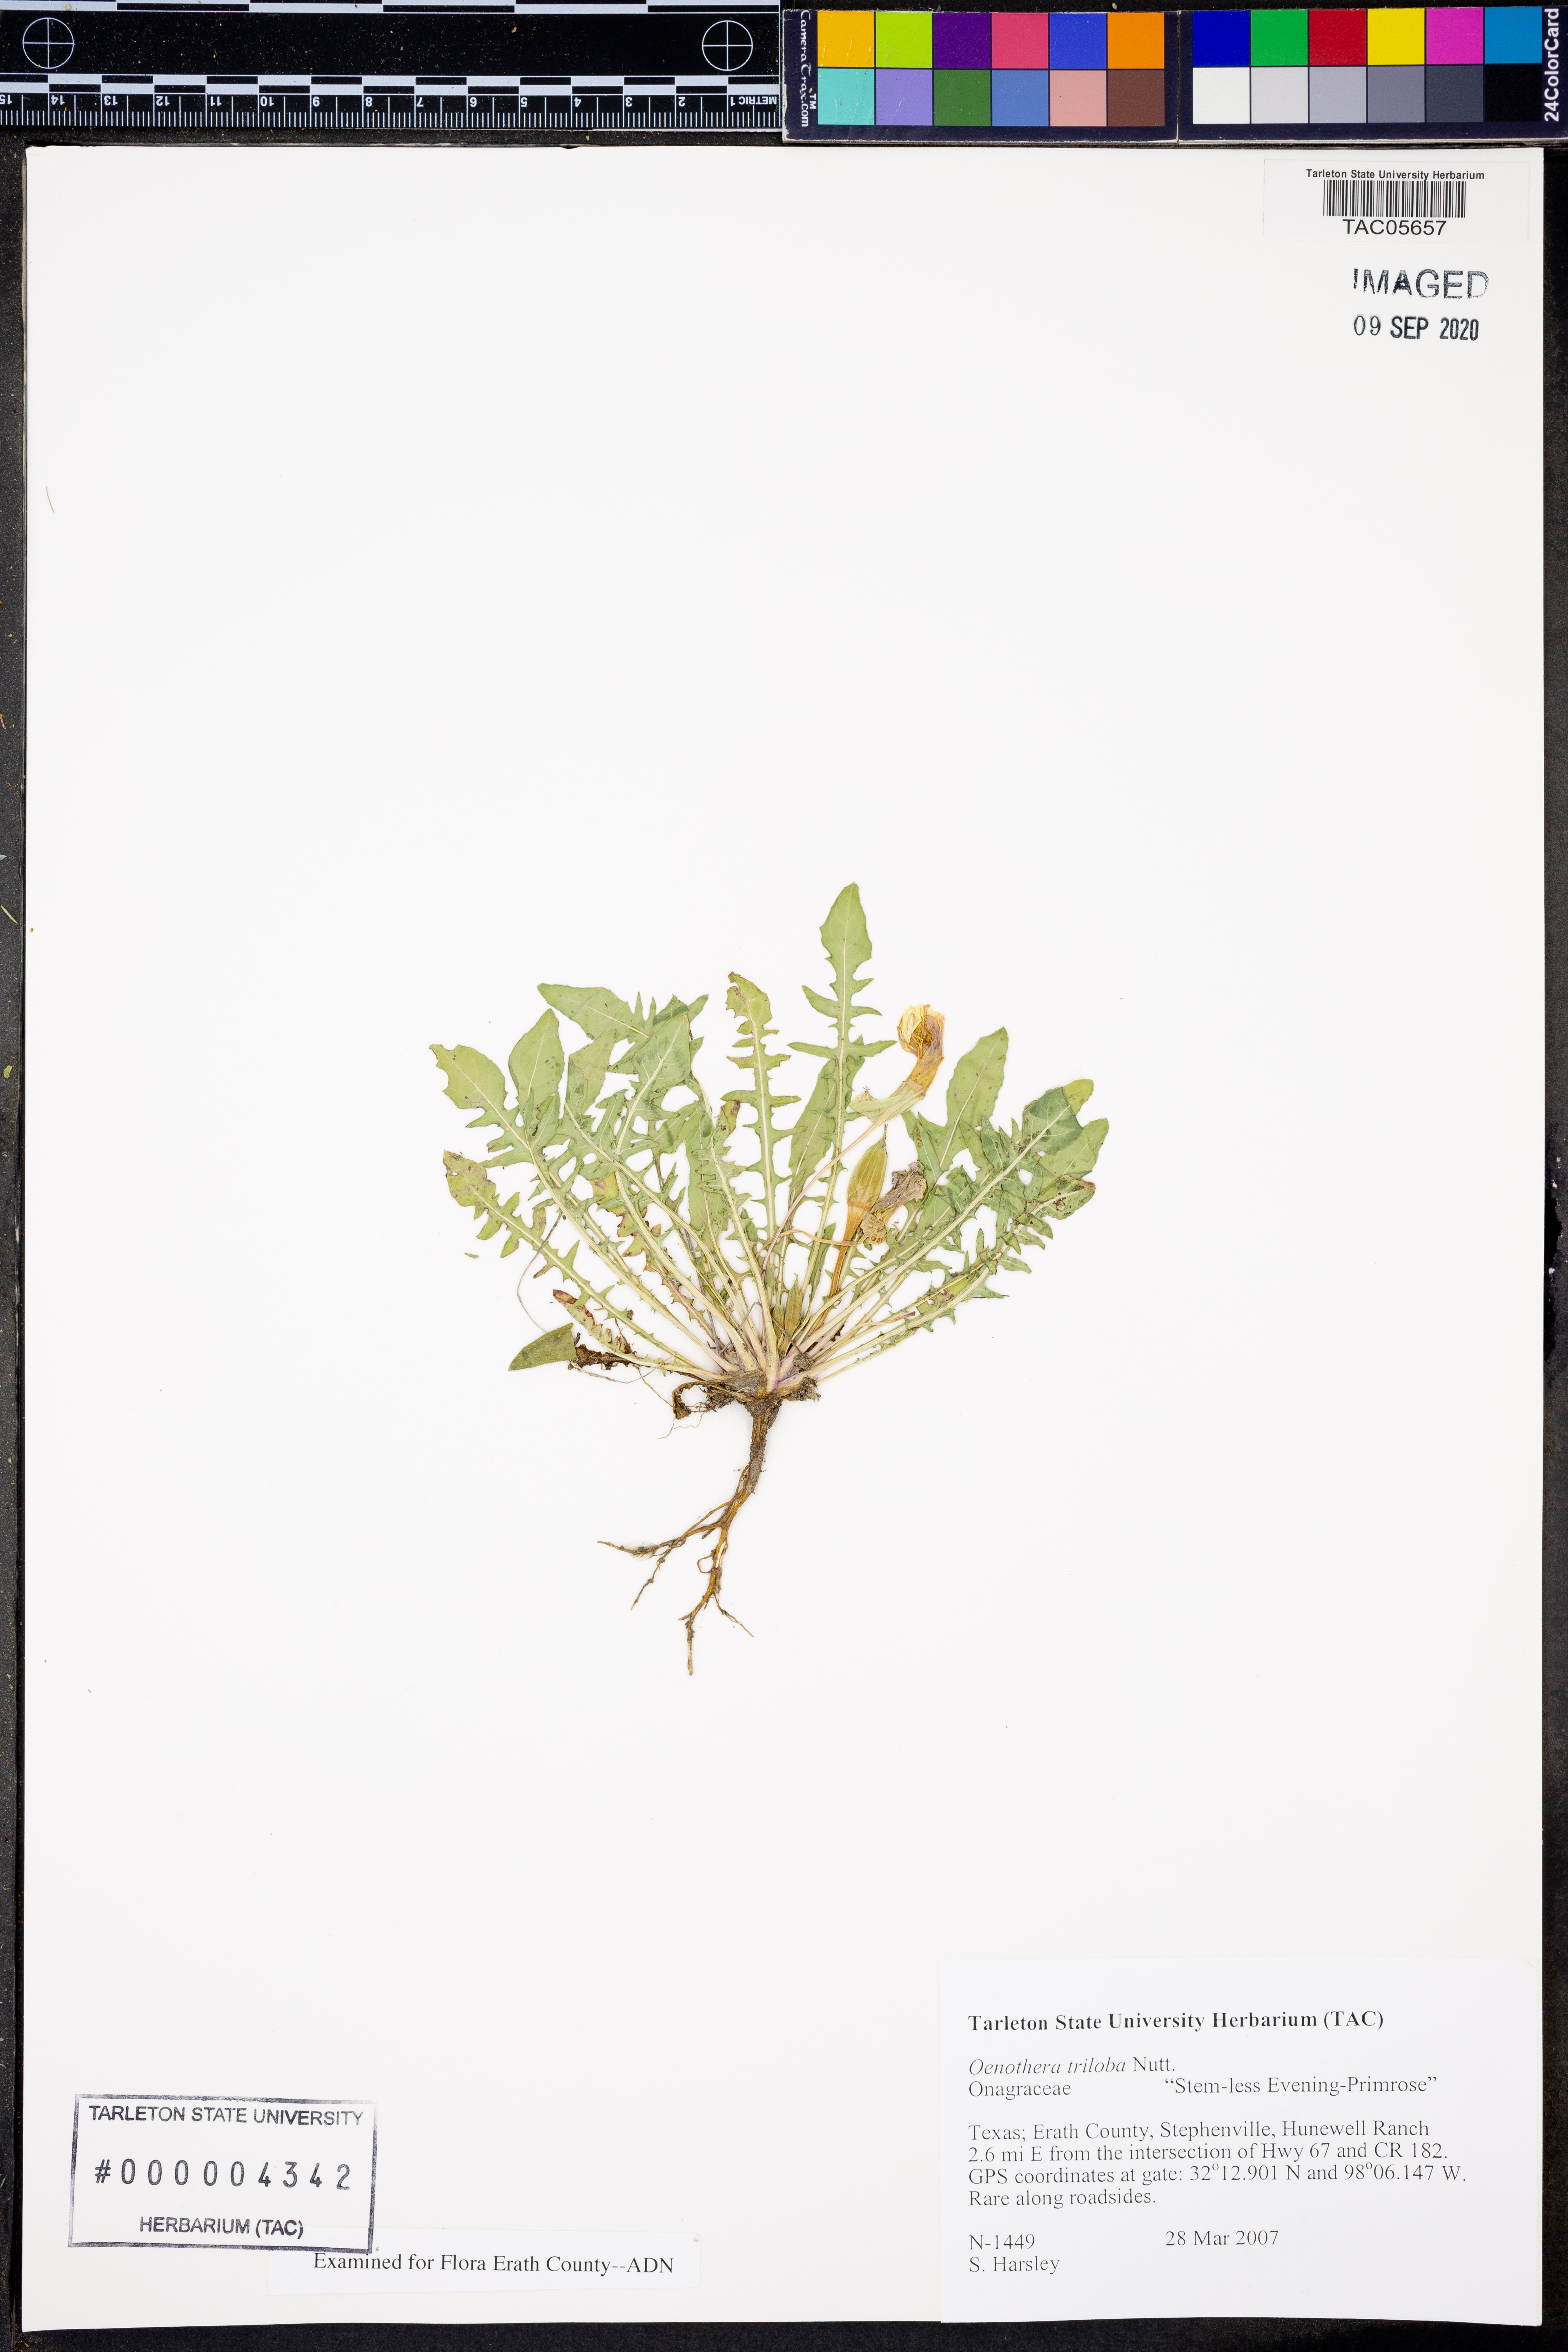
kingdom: Plantae
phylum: Tracheophyta
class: Magnoliopsida
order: Myrtales
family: Onagraceae
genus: Oenothera
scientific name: Oenothera triloba
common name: Sessile evening-primrose
